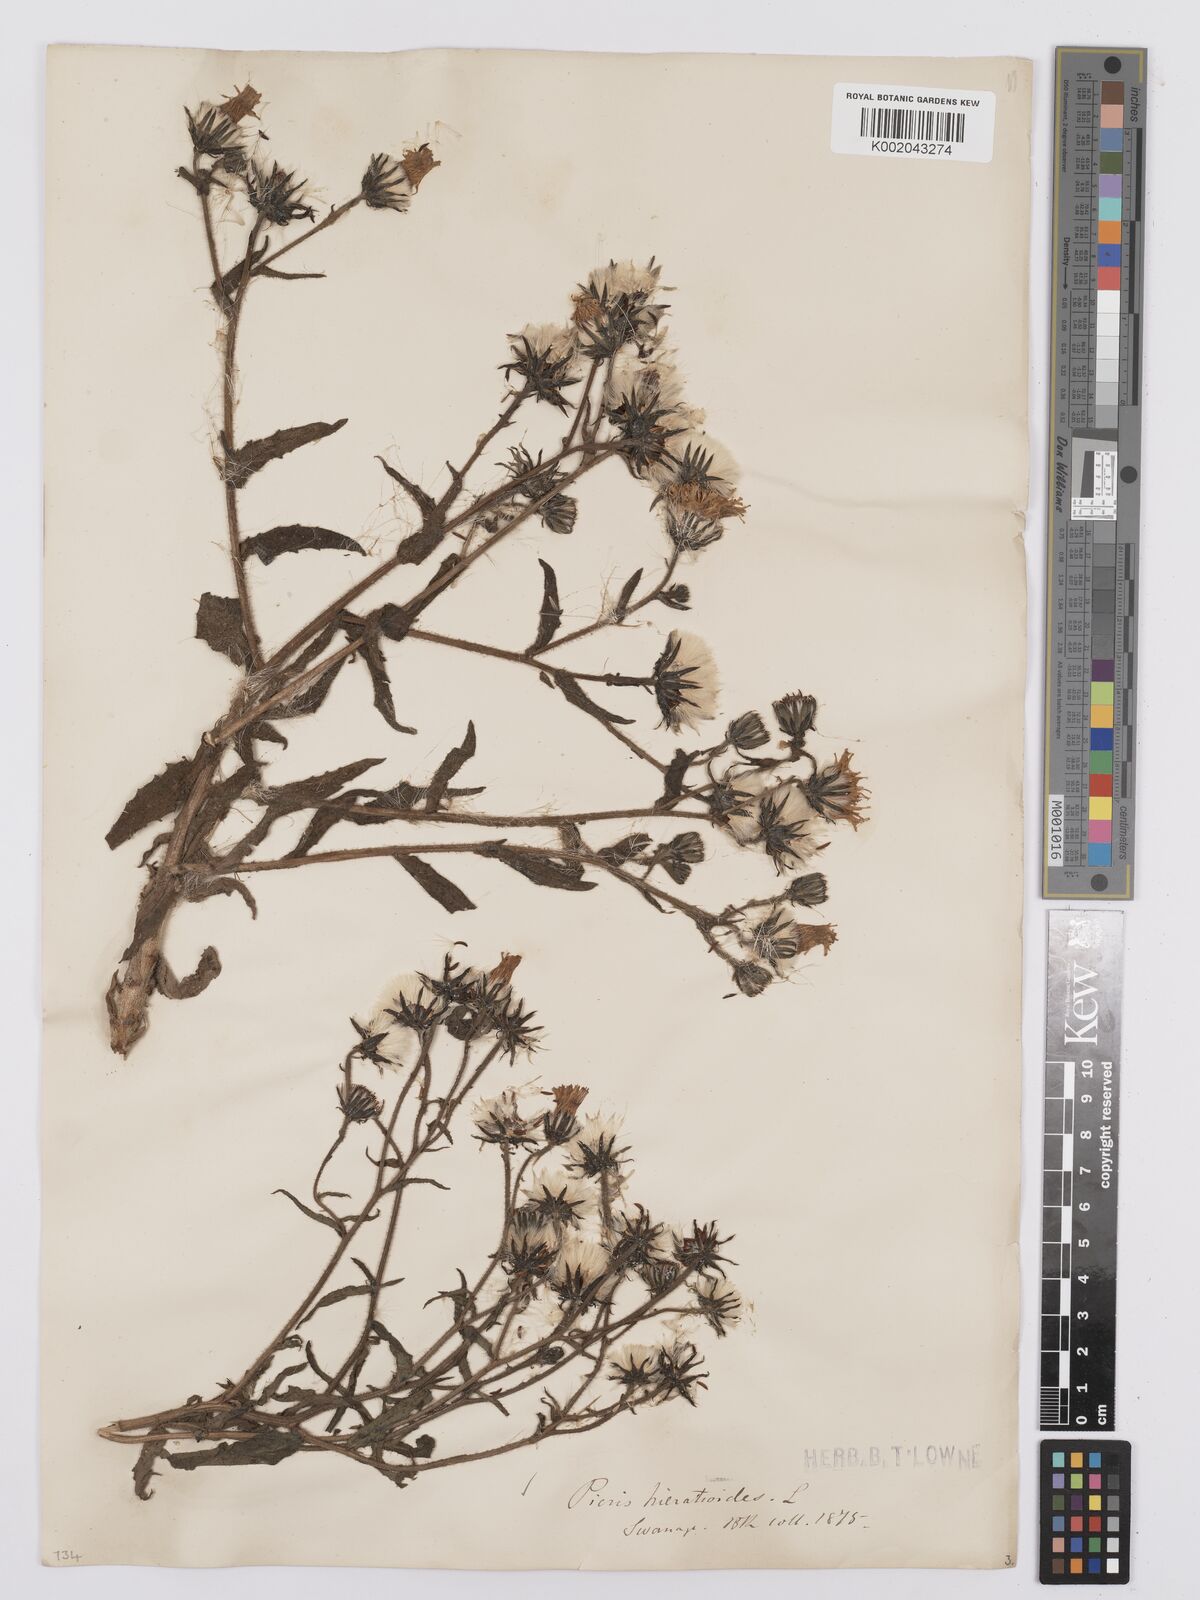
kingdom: Plantae
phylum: Tracheophyta
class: Magnoliopsida
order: Asterales
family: Asteraceae
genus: Picris
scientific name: Picris hieracioides
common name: Hawkweed oxtongue
